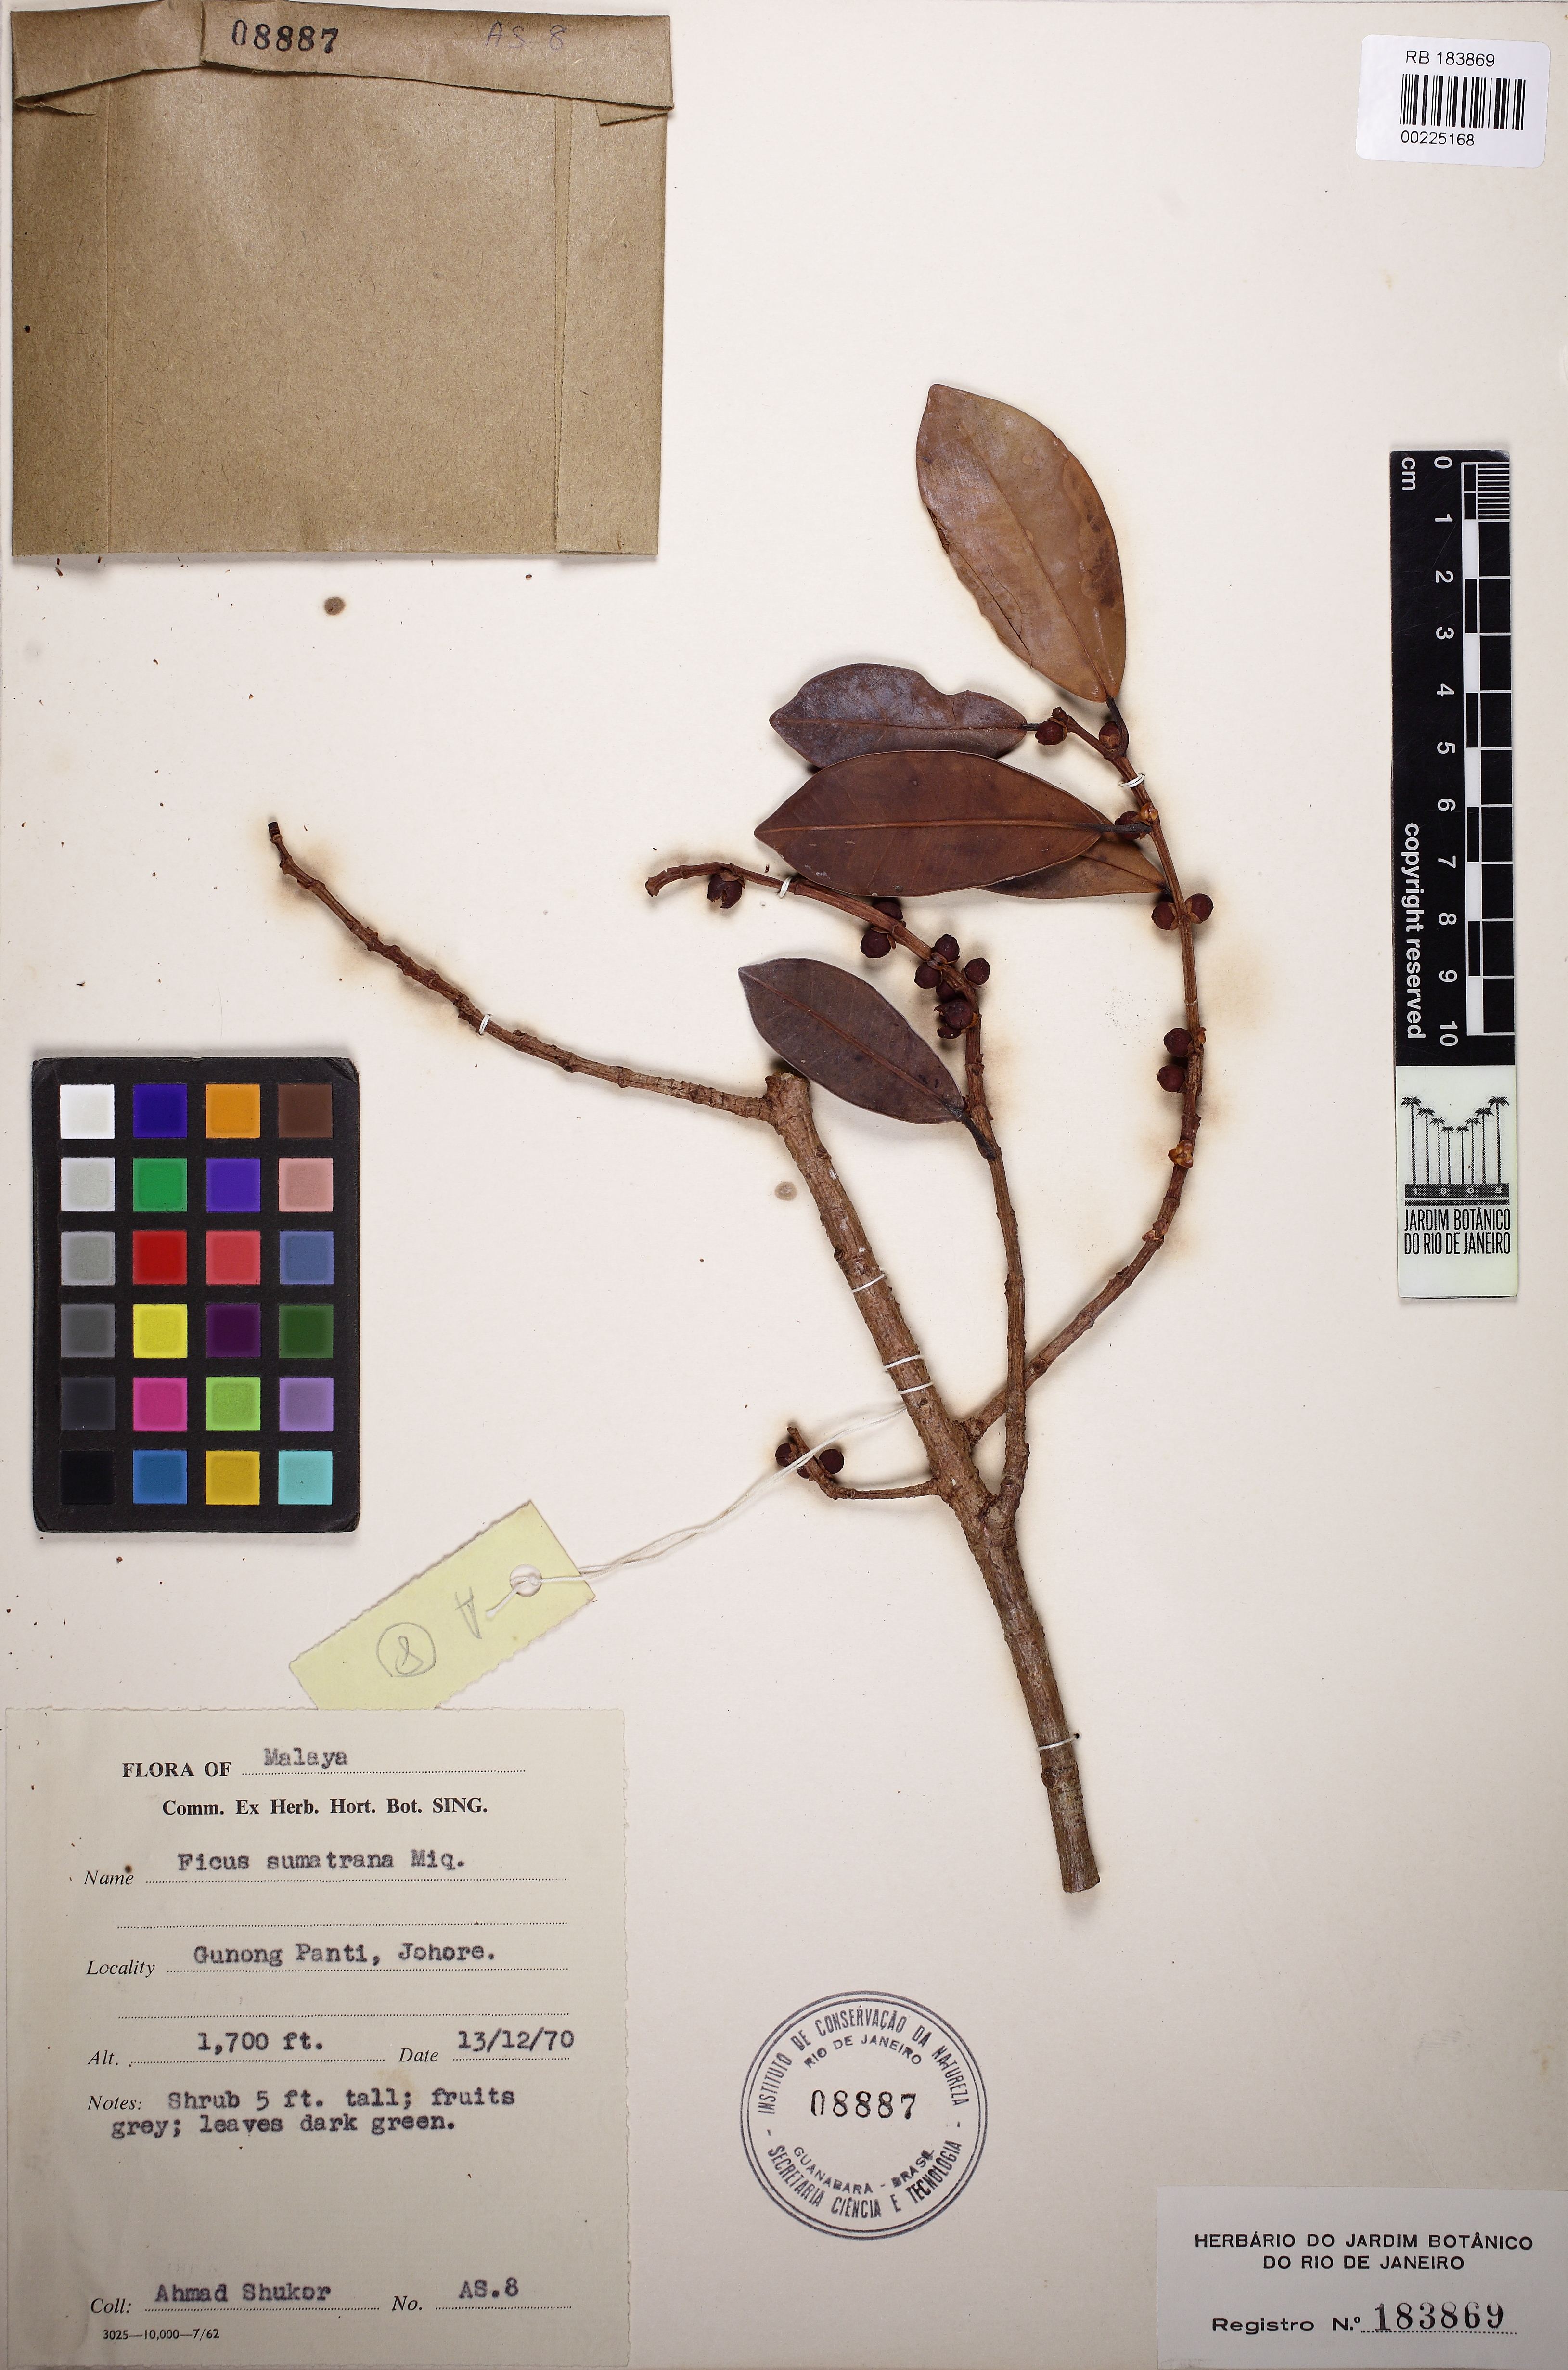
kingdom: Plantae
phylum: Tracheophyta
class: Magnoliopsida
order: Rosales
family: Moraceae
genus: Ficus
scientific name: Ficus sumatrana
